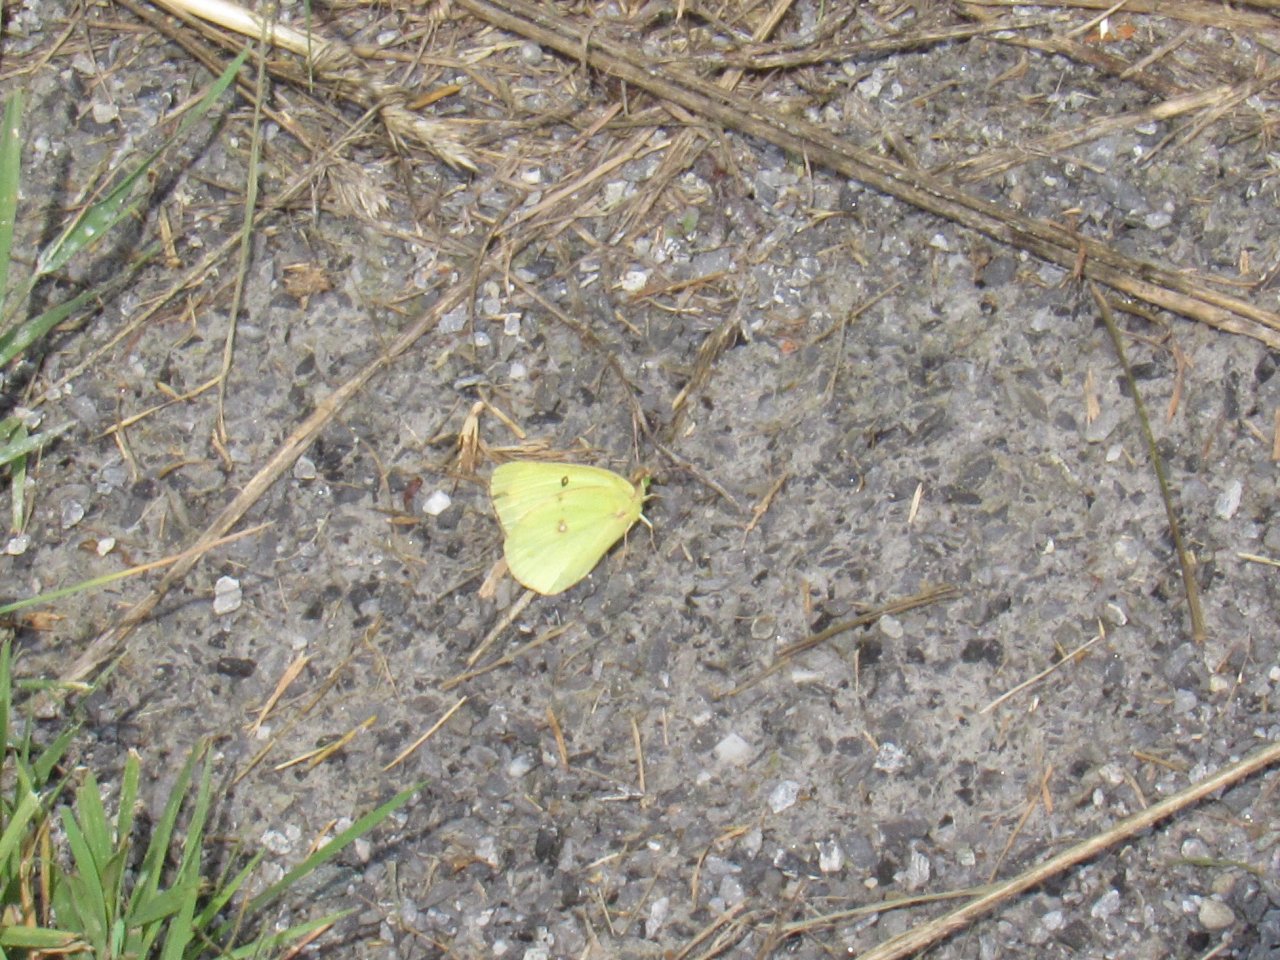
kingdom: Animalia
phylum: Arthropoda
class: Insecta
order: Lepidoptera
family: Pieridae
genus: Colias
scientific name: Colias philodice
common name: Clouded Sulphur
